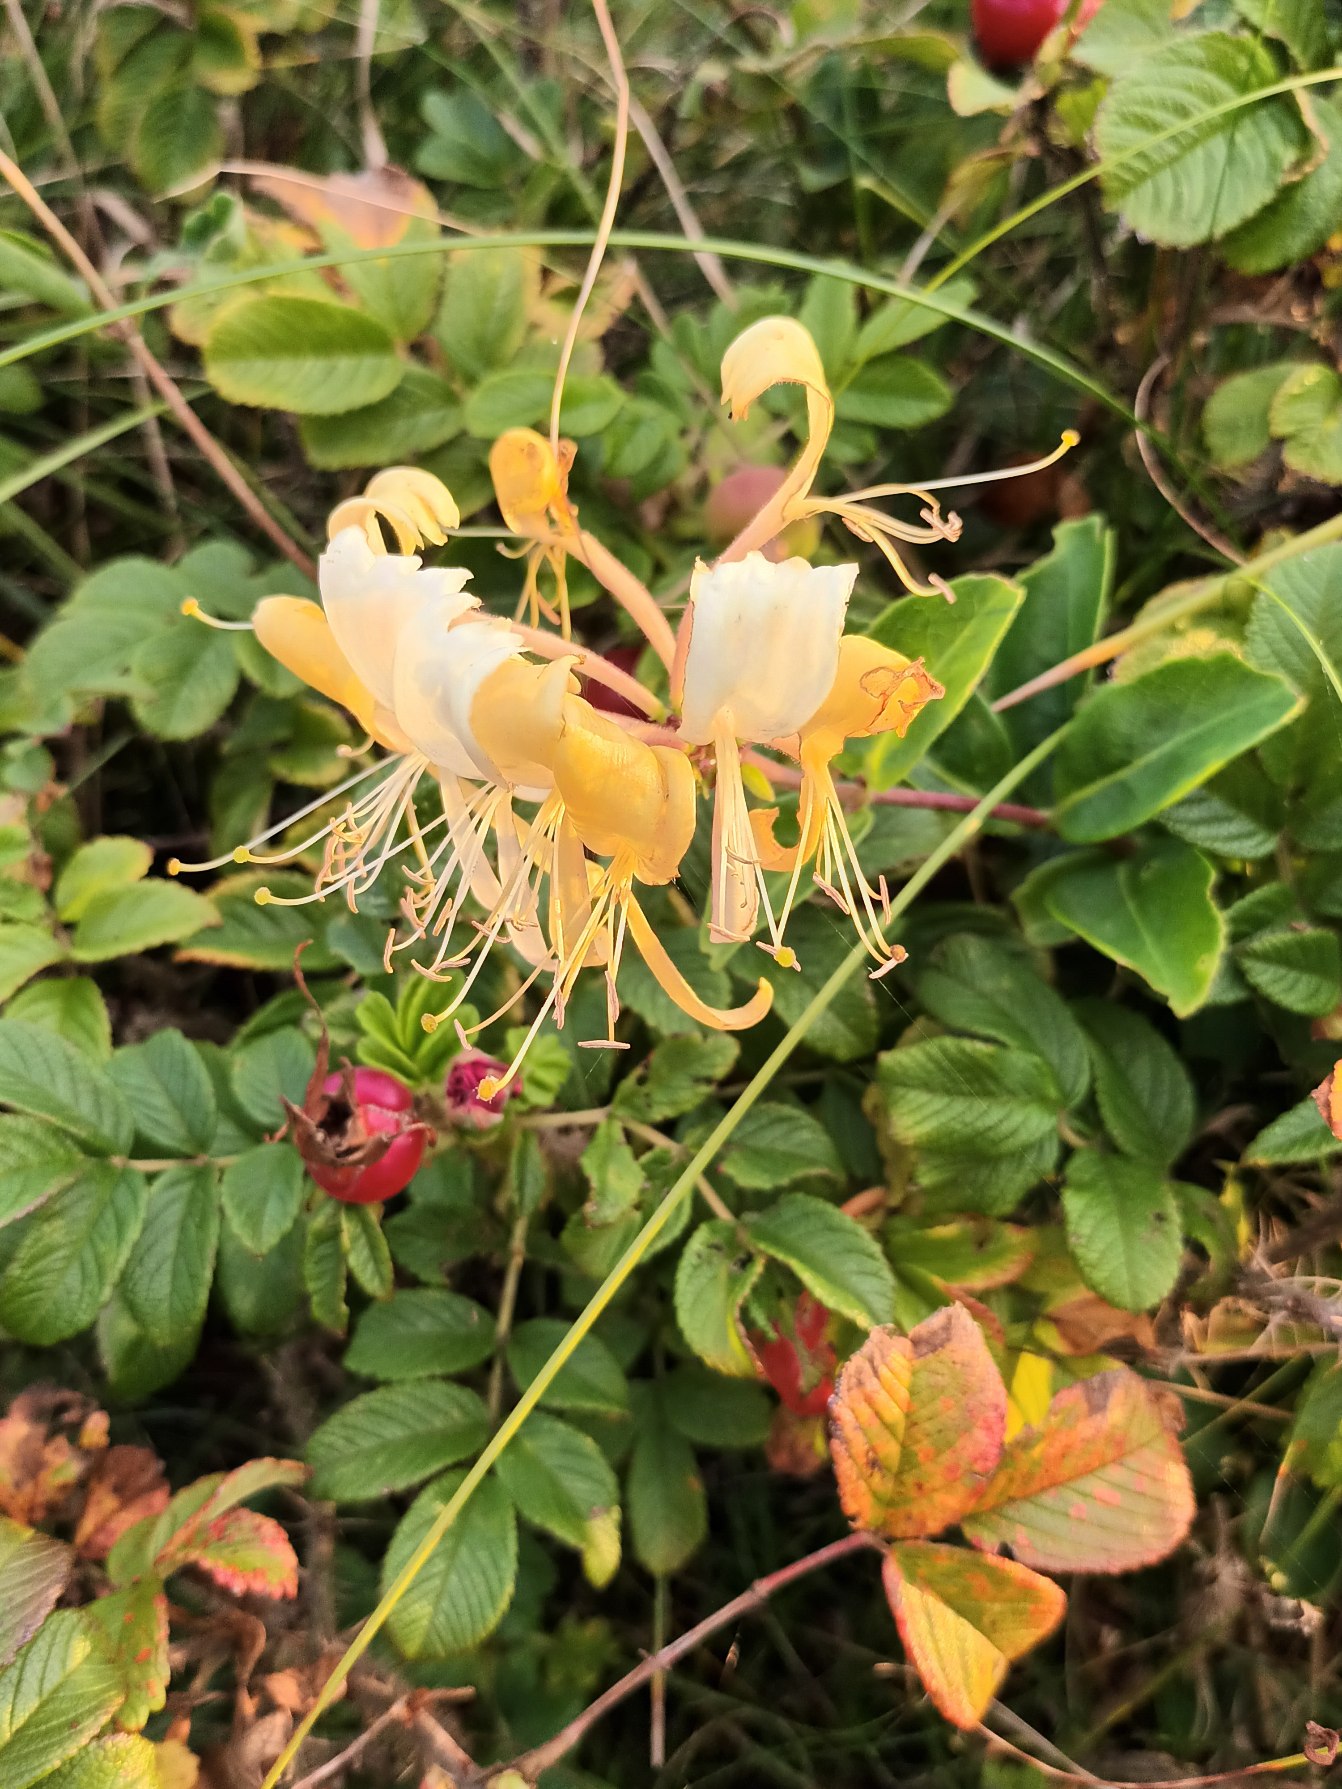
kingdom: Plantae
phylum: Tracheophyta
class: Magnoliopsida
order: Dipsacales
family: Caprifoliaceae
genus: Lonicera
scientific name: Lonicera periclymenum
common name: Almindelig gedeblad
